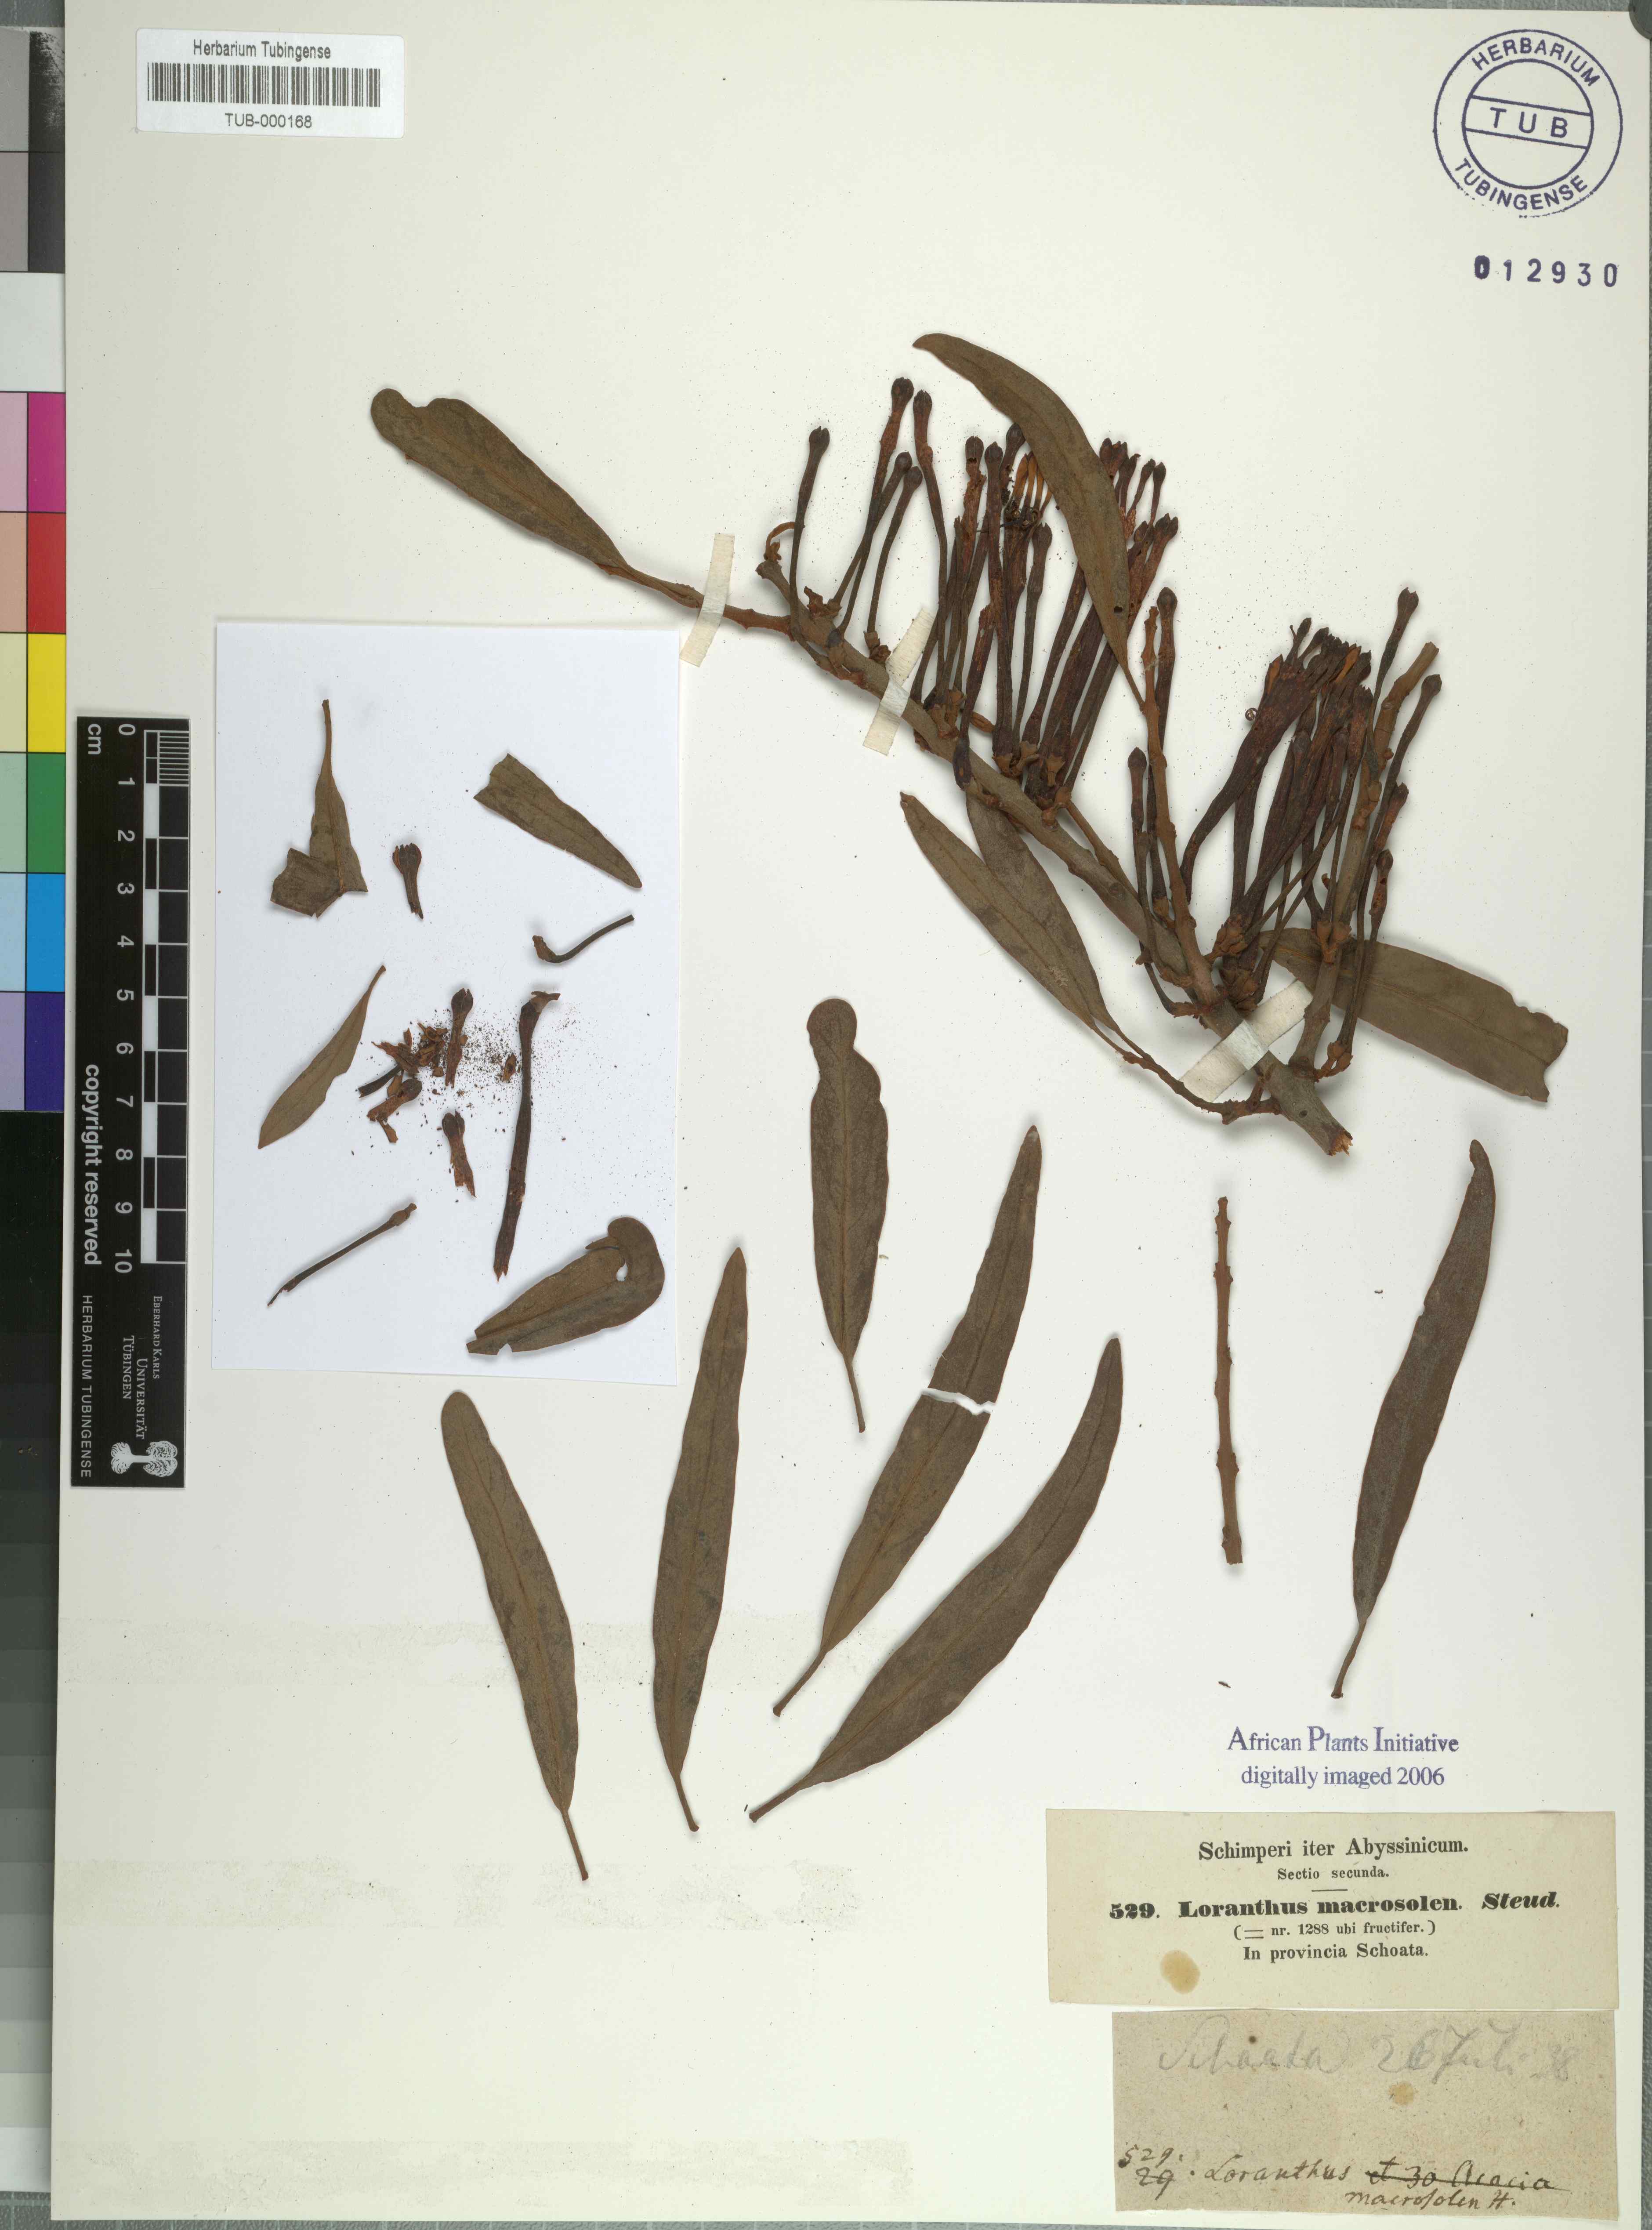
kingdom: Plantae
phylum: Tracheophyta
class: Magnoliopsida
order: Santalales
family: Loranthaceae
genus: Phragmanthera
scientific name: Phragmanthera macrosolen
